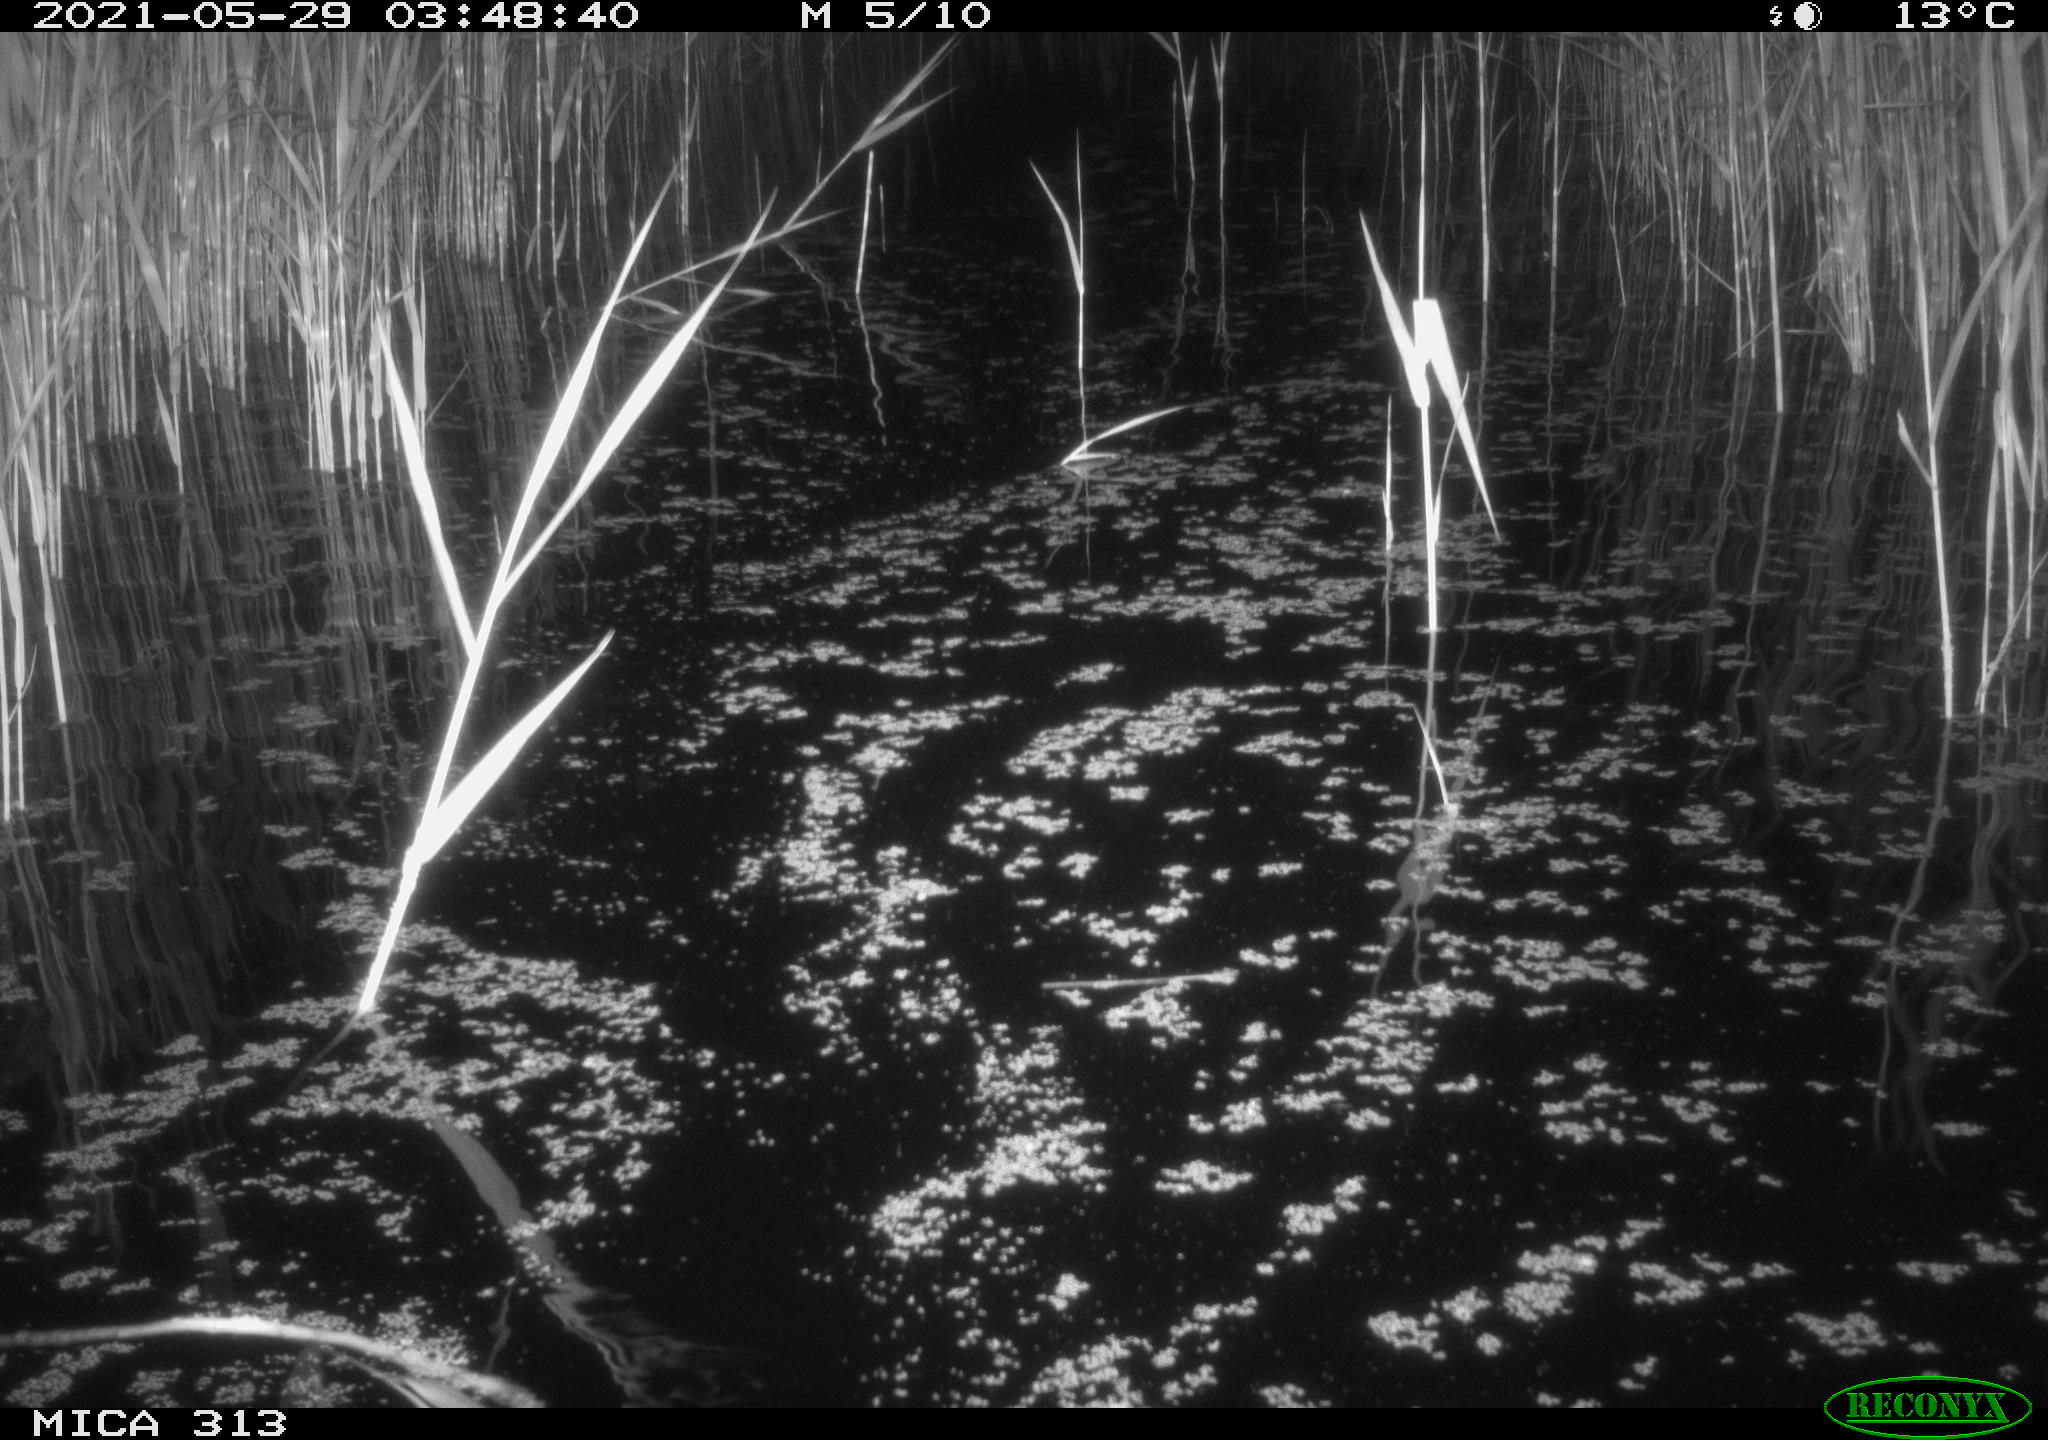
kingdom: Animalia
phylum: Chordata
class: Aves
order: Anseriformes
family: Anatidae
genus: Anas
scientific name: Anas platyrhynchos
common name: Mallard
